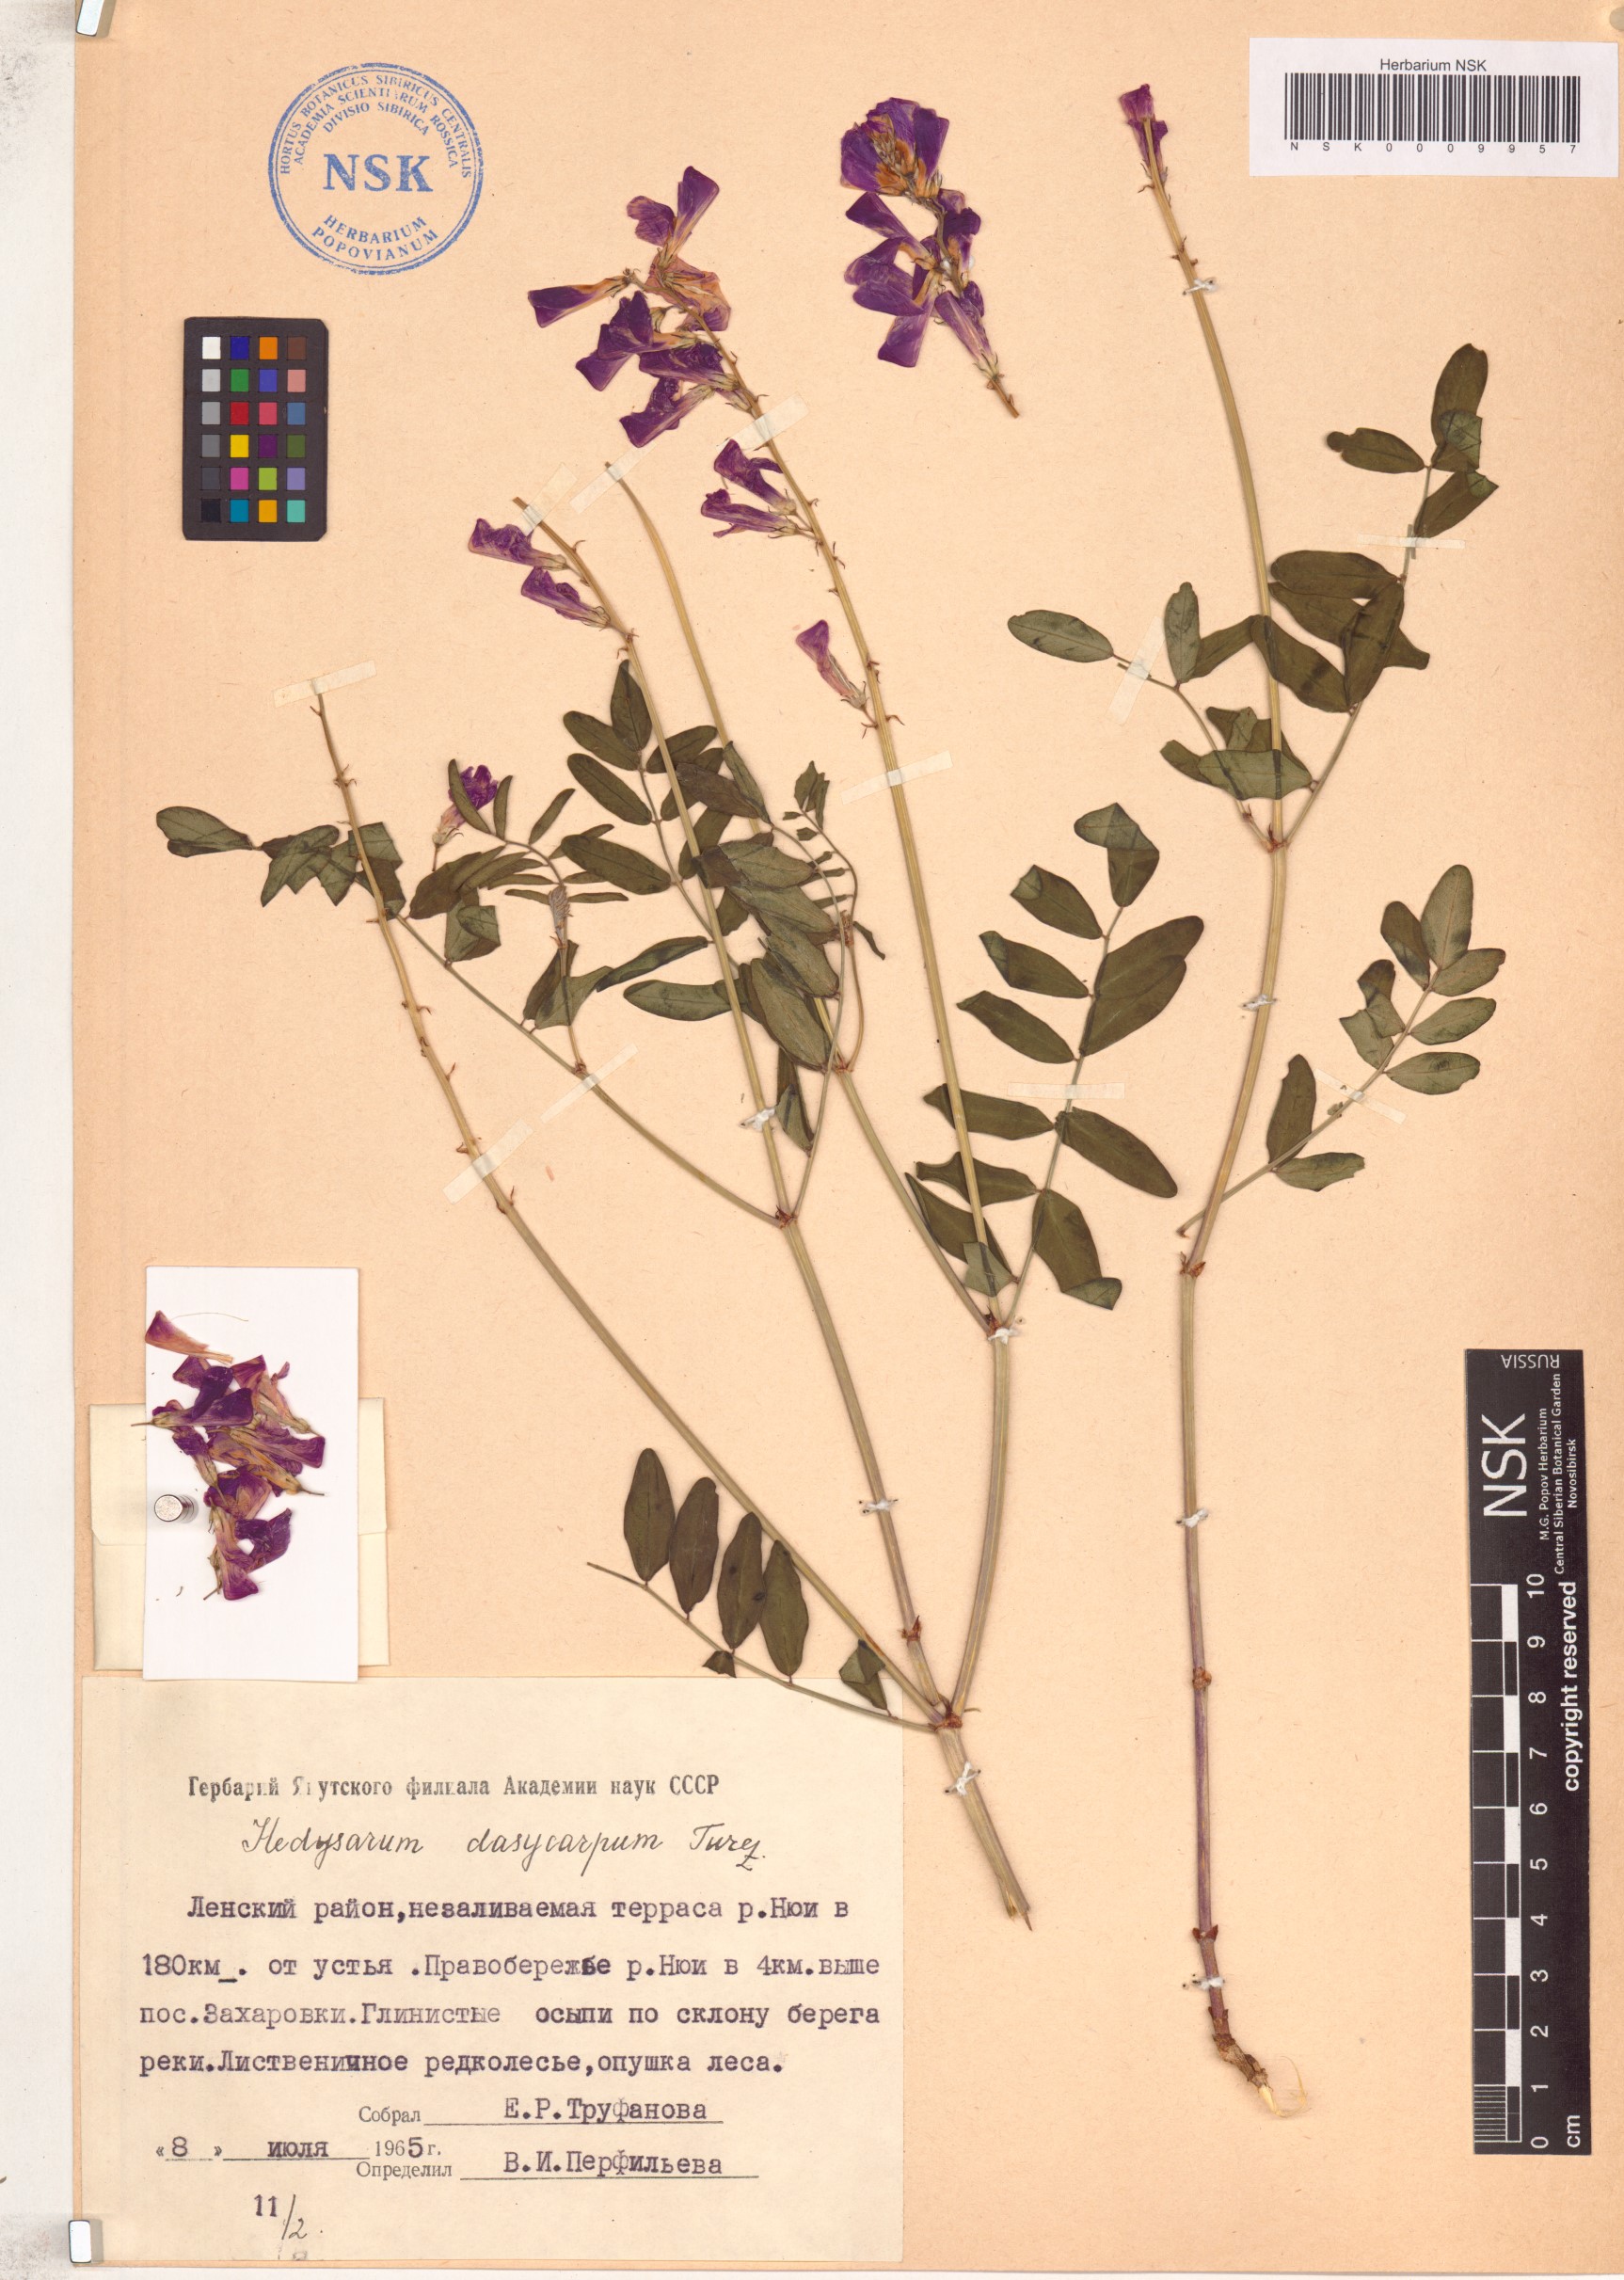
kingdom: Plantae
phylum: Tracheophyta
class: Magnoliopsida
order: Fabales
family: Fabaceae
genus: Hedysarum
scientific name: Hedysarum dasycarpum
